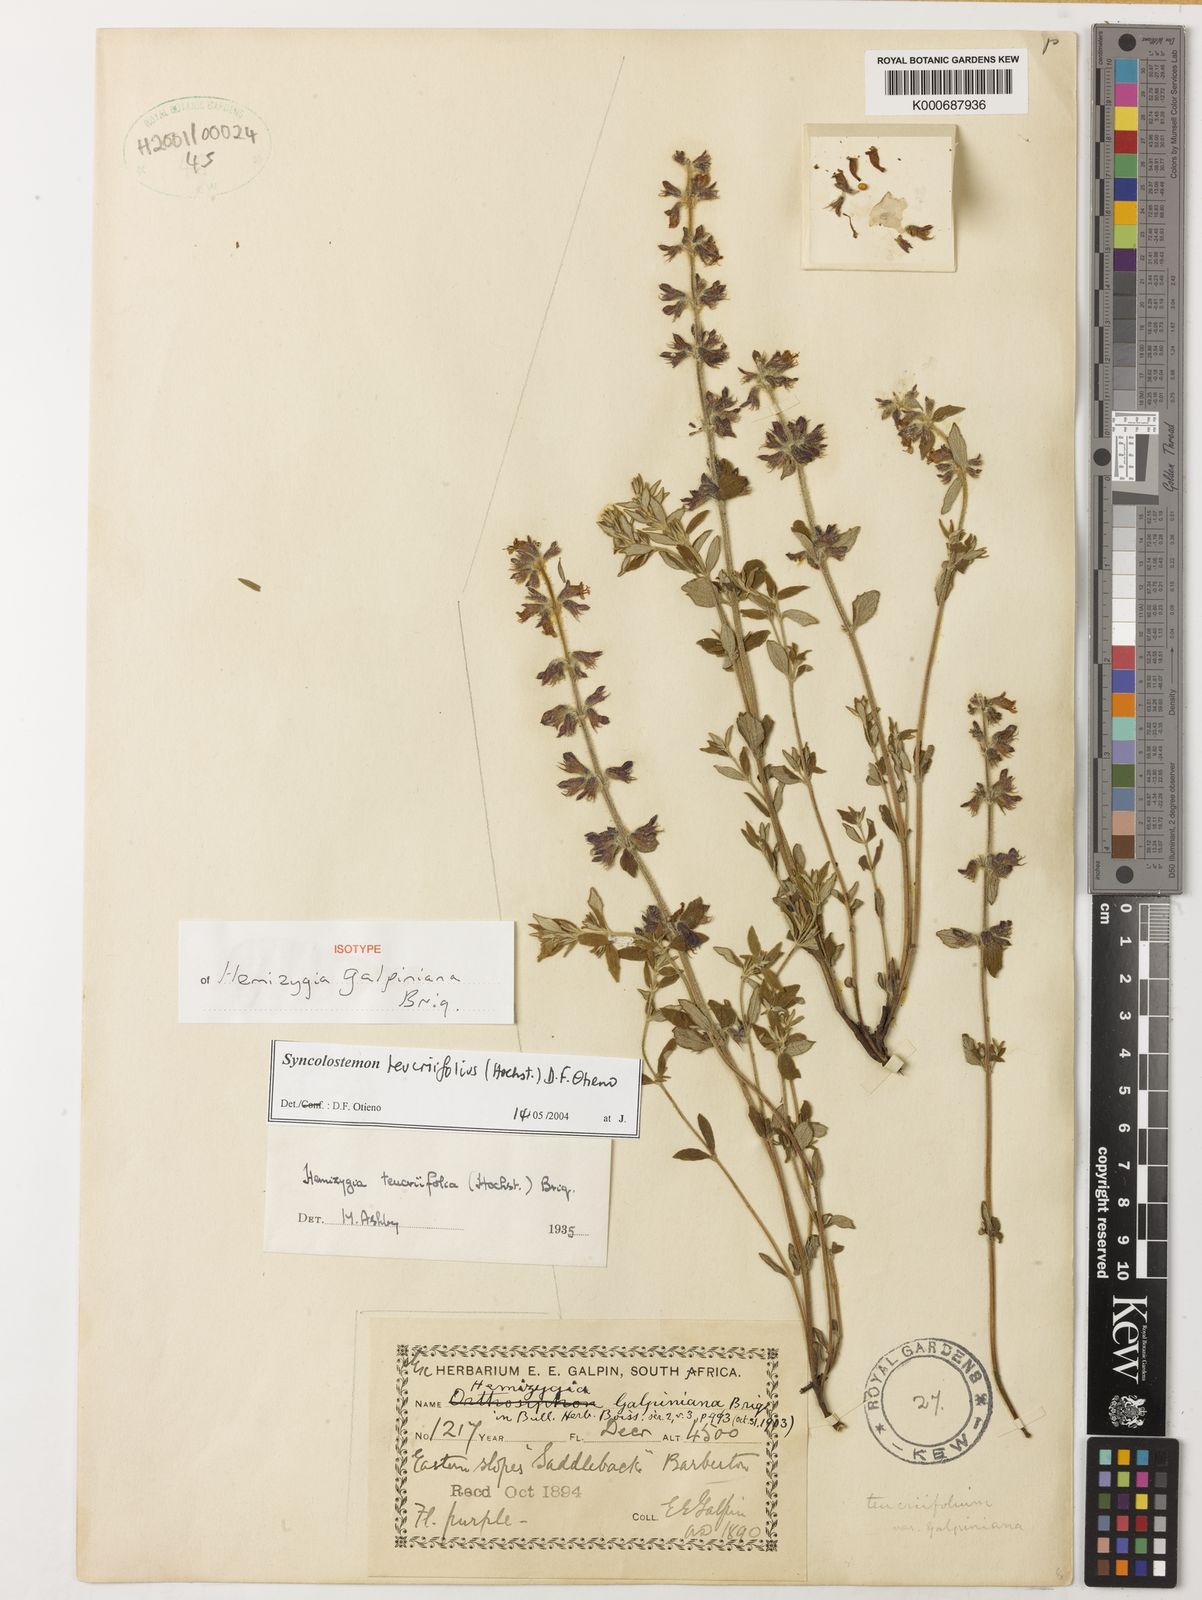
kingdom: Plantae
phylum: Tracheophyta
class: Magnoliopsida
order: Lamiales
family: Lamiaceae
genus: Syncolostemon
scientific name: Syncolostemon teucriifolius
